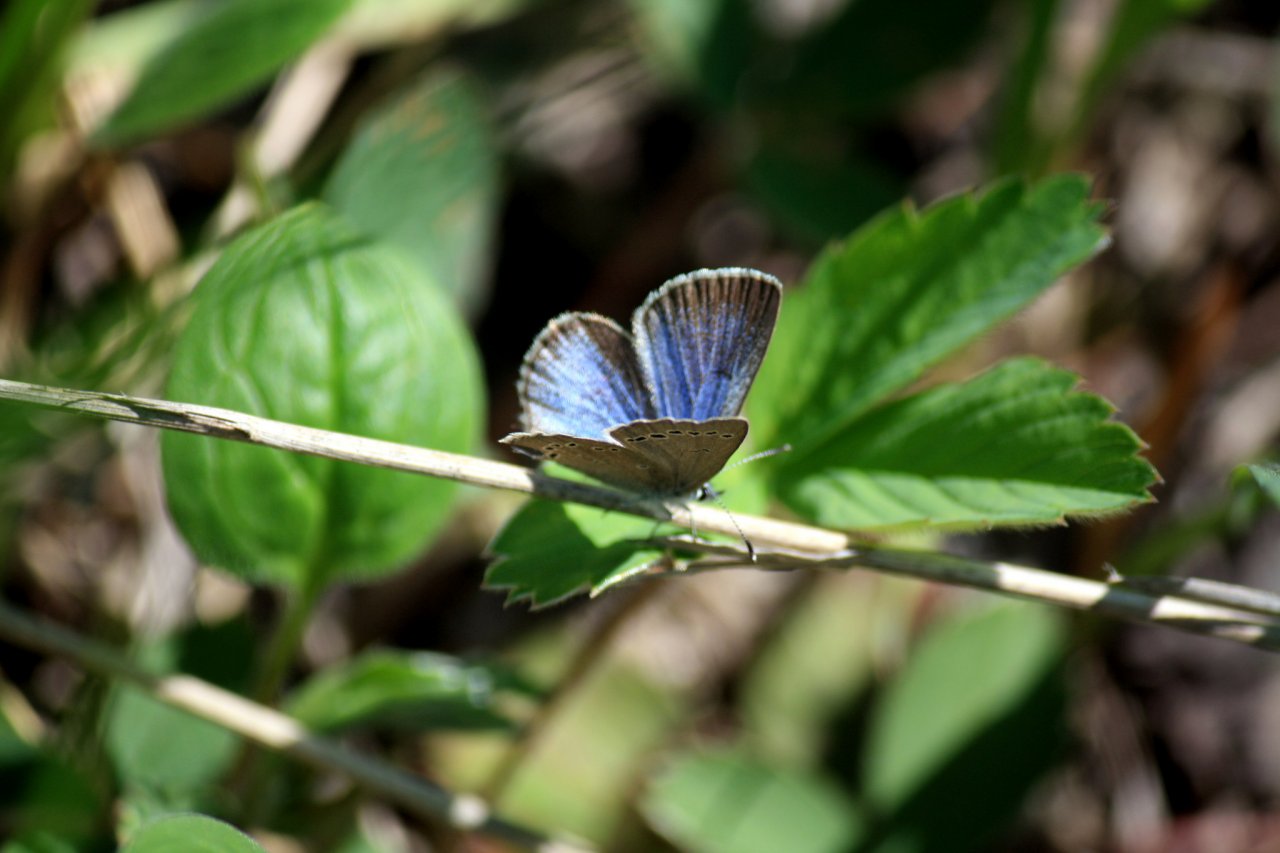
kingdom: Animalia
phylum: Arthropoda
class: Insecta
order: Lepidoptera
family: Lycaenidae
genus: Glaucopsyche
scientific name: Glaucopsyche lygdamus
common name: Silvery Blue
